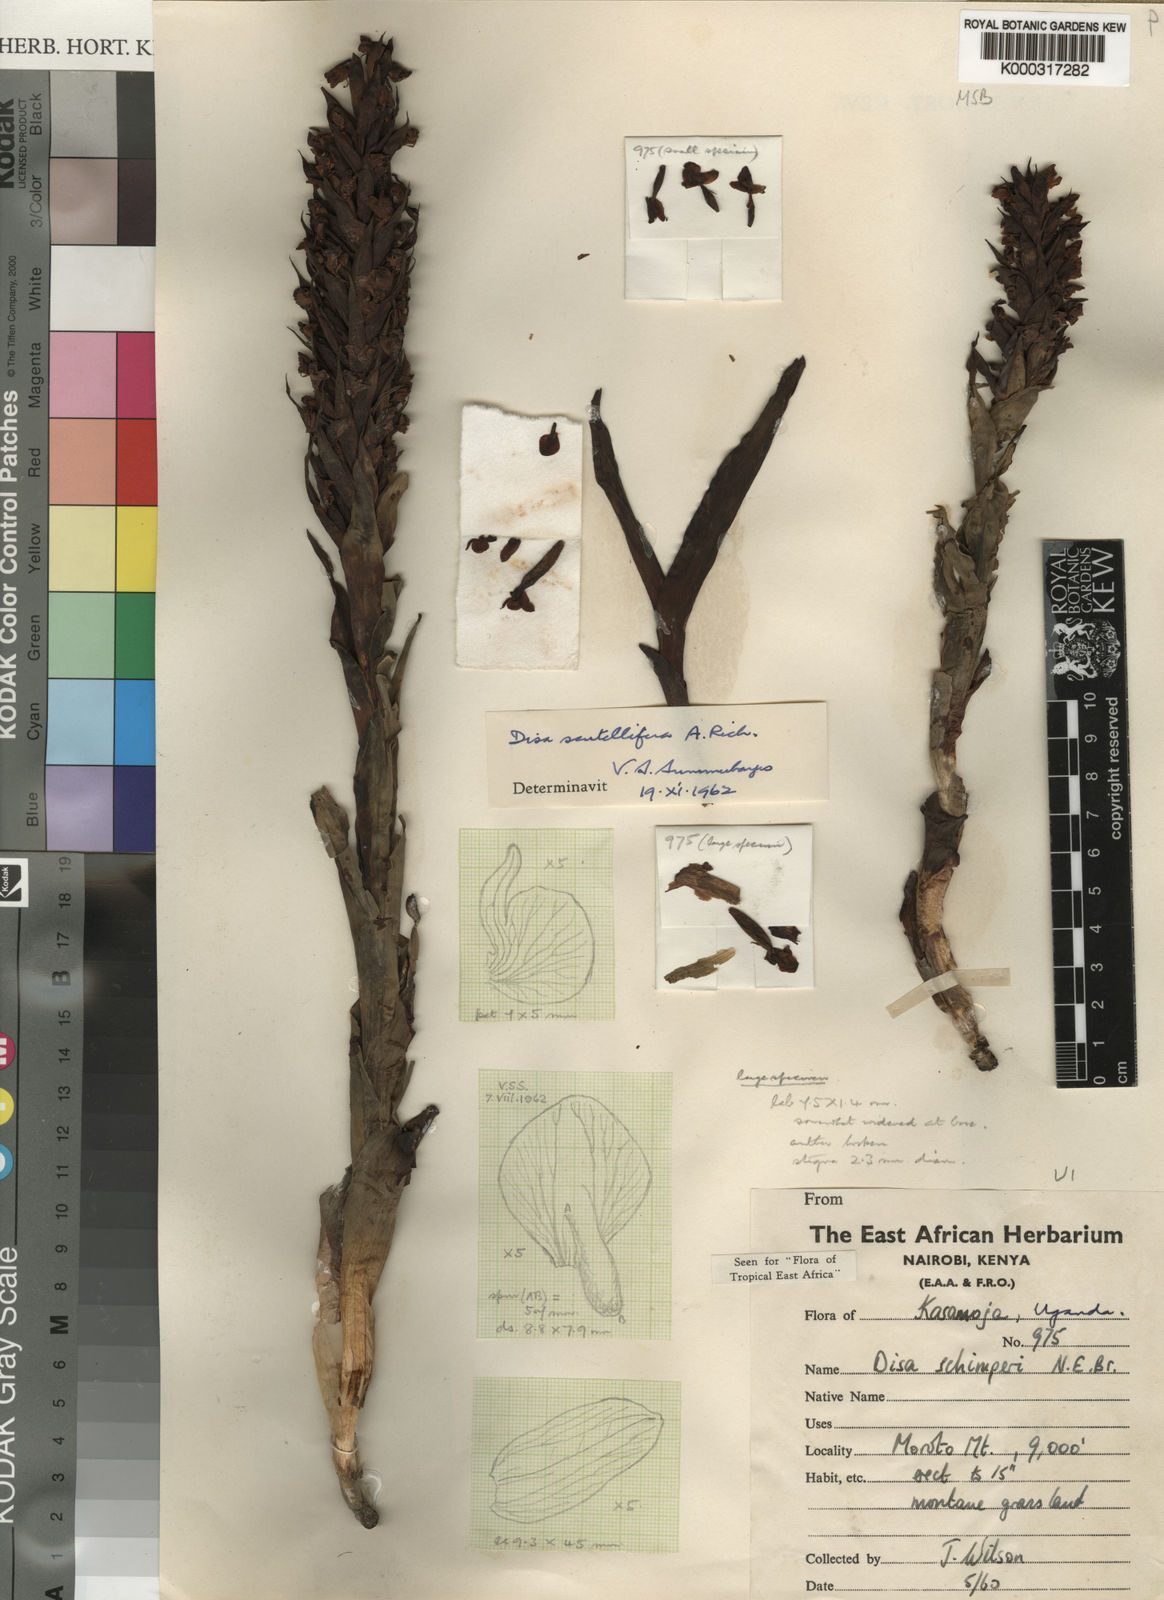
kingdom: Plantae
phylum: Tracheophyta
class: Liliopsida
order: Asparagales
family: Orchidaceae
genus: Disa
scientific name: Disa scutellifera
